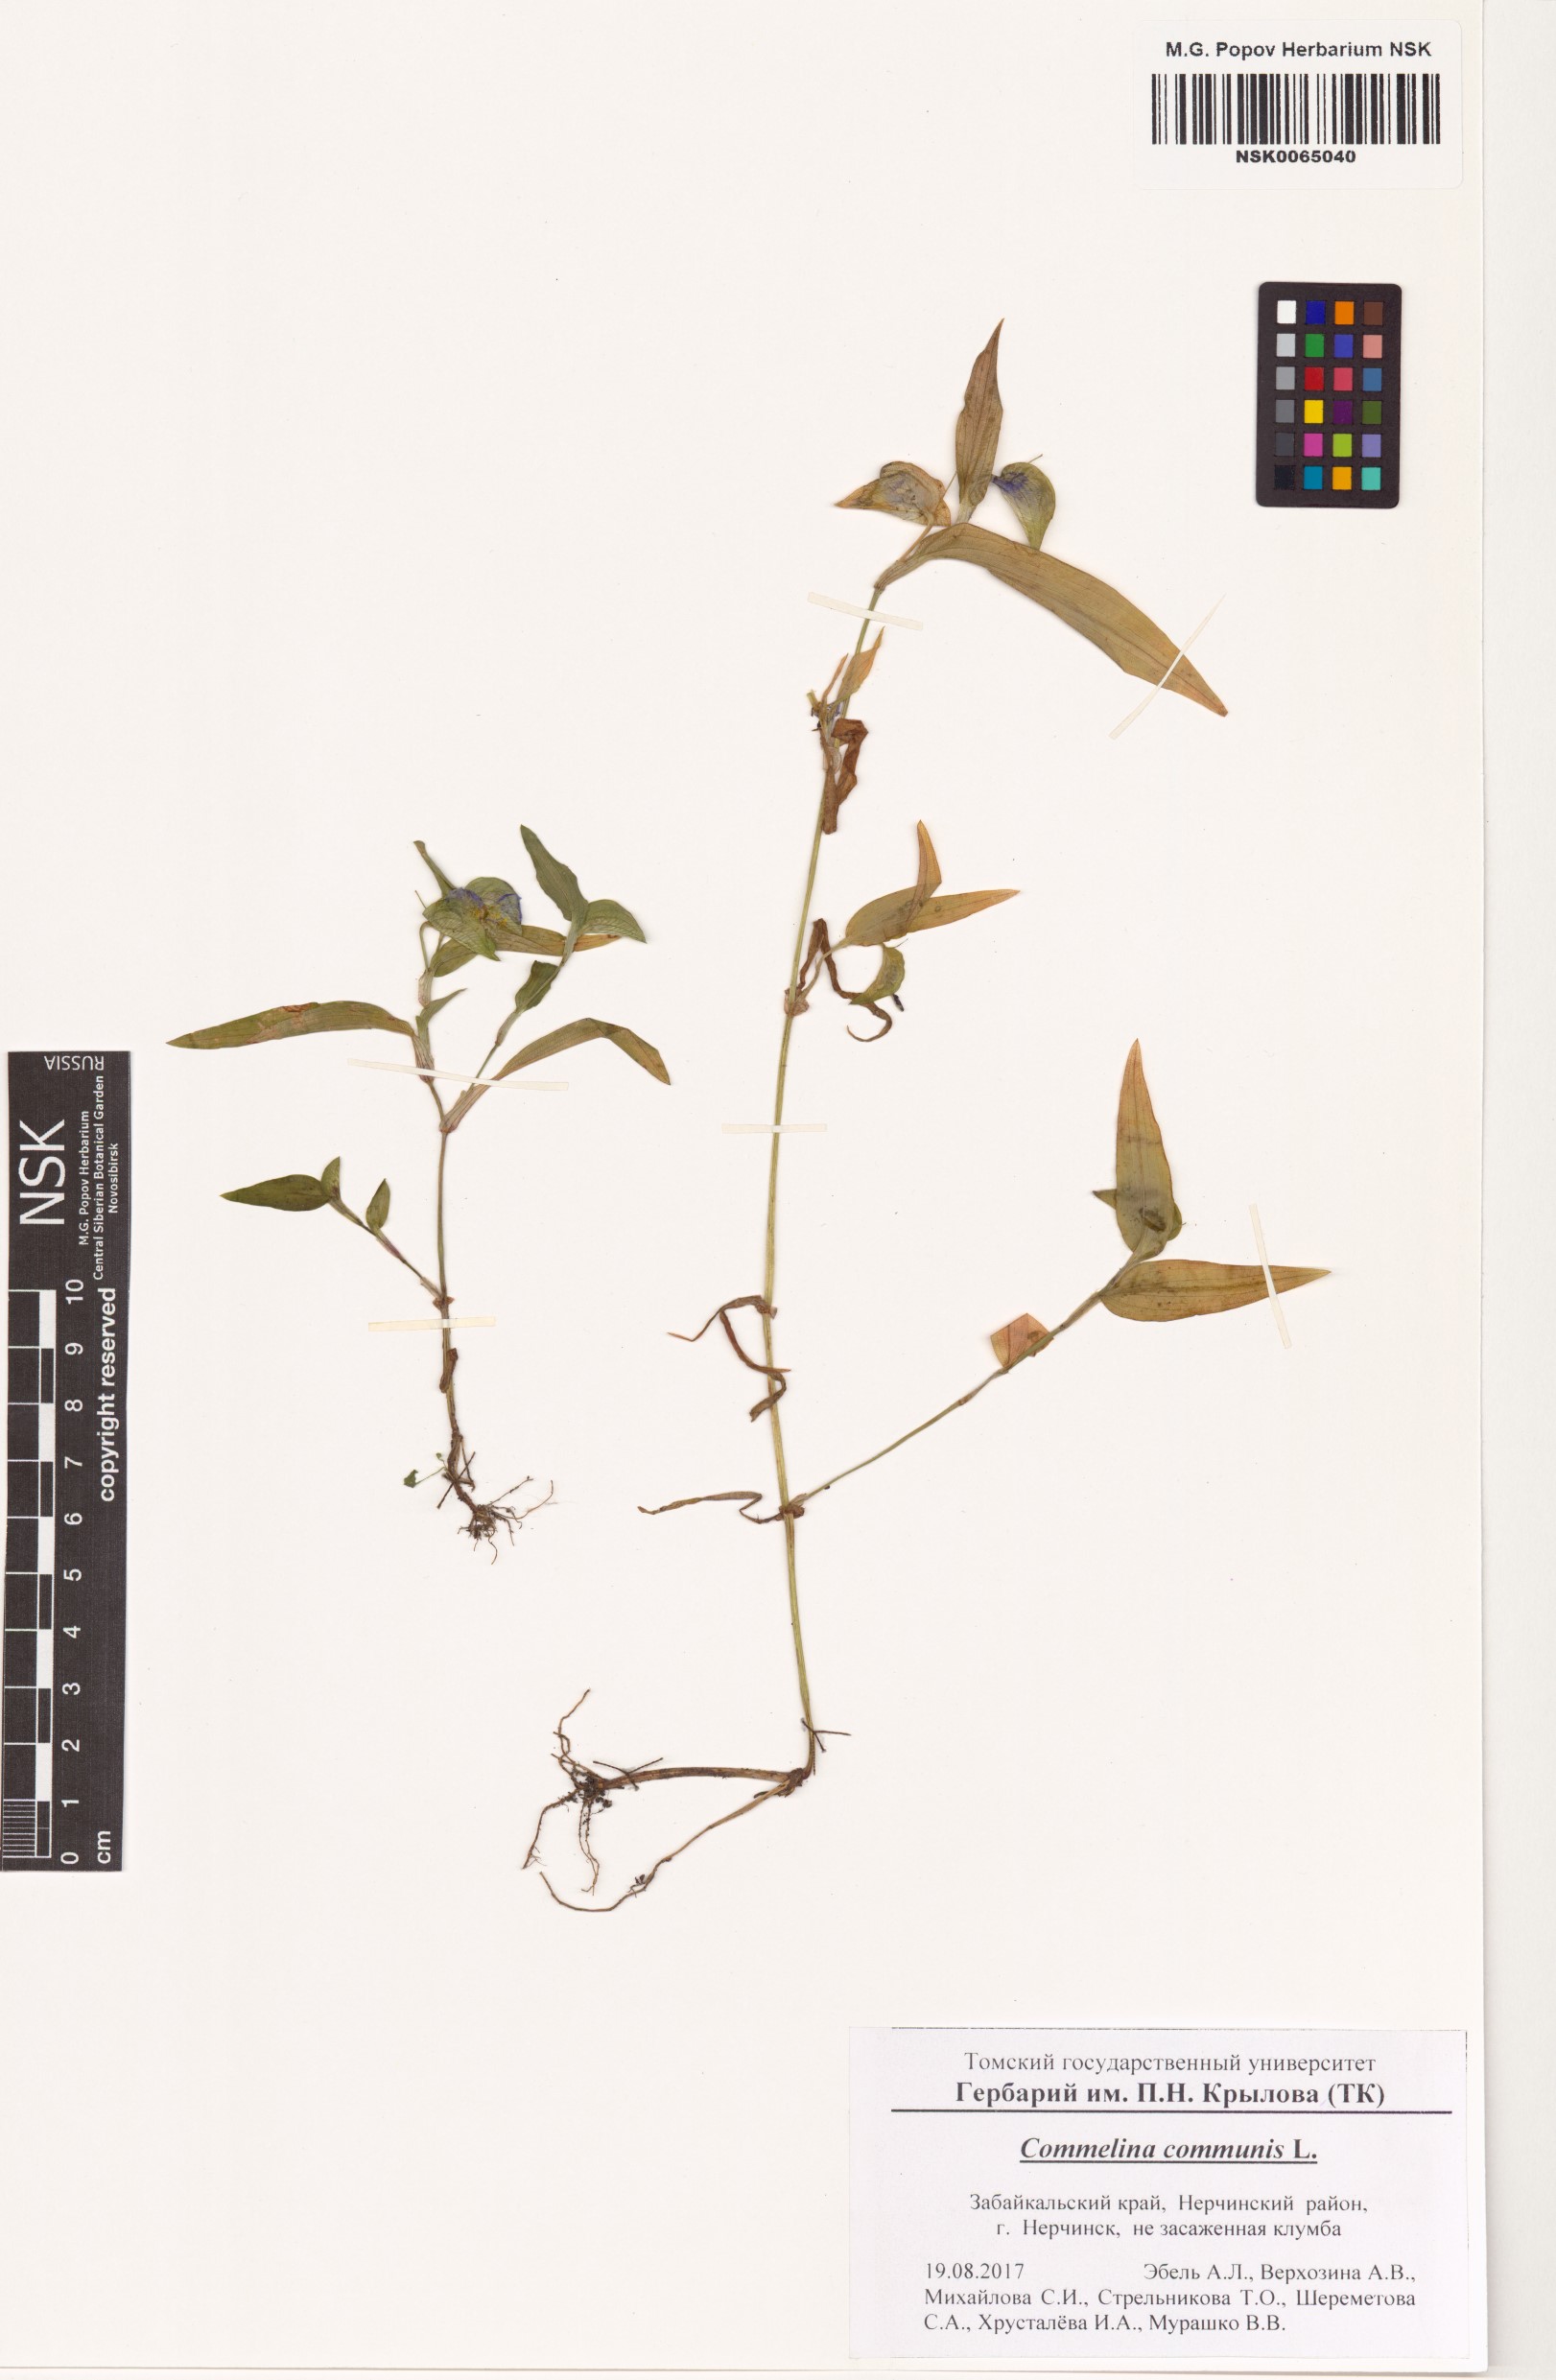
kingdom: Plantae
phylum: Tracheophyta
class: Liliopsida
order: Commelinales
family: Commelinaceae
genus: Commelina
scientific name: Commelina communis
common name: Asiatic dayflower
